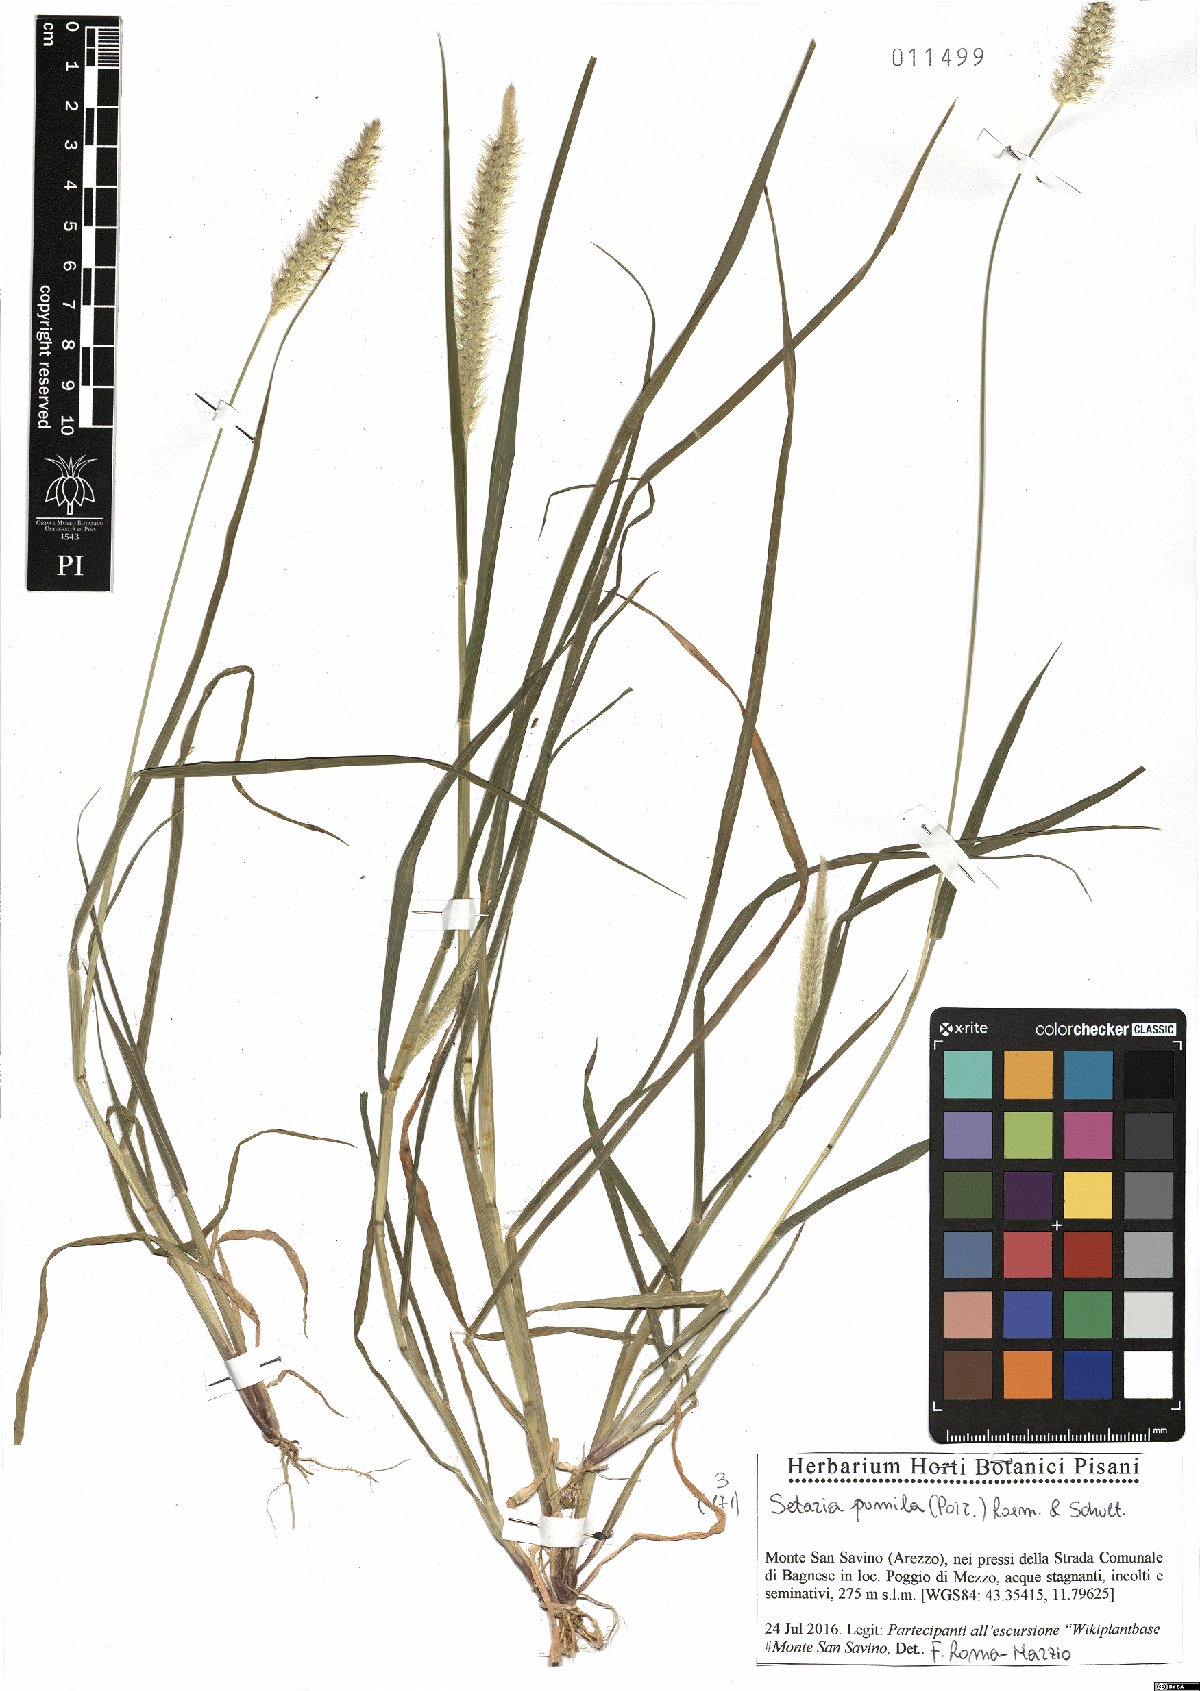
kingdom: Plantae
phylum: Tracheophyta
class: Liliopsida
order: Poales
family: Poaceae
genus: Setaria
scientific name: Setaria pumila
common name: Yellow bristle-grass
